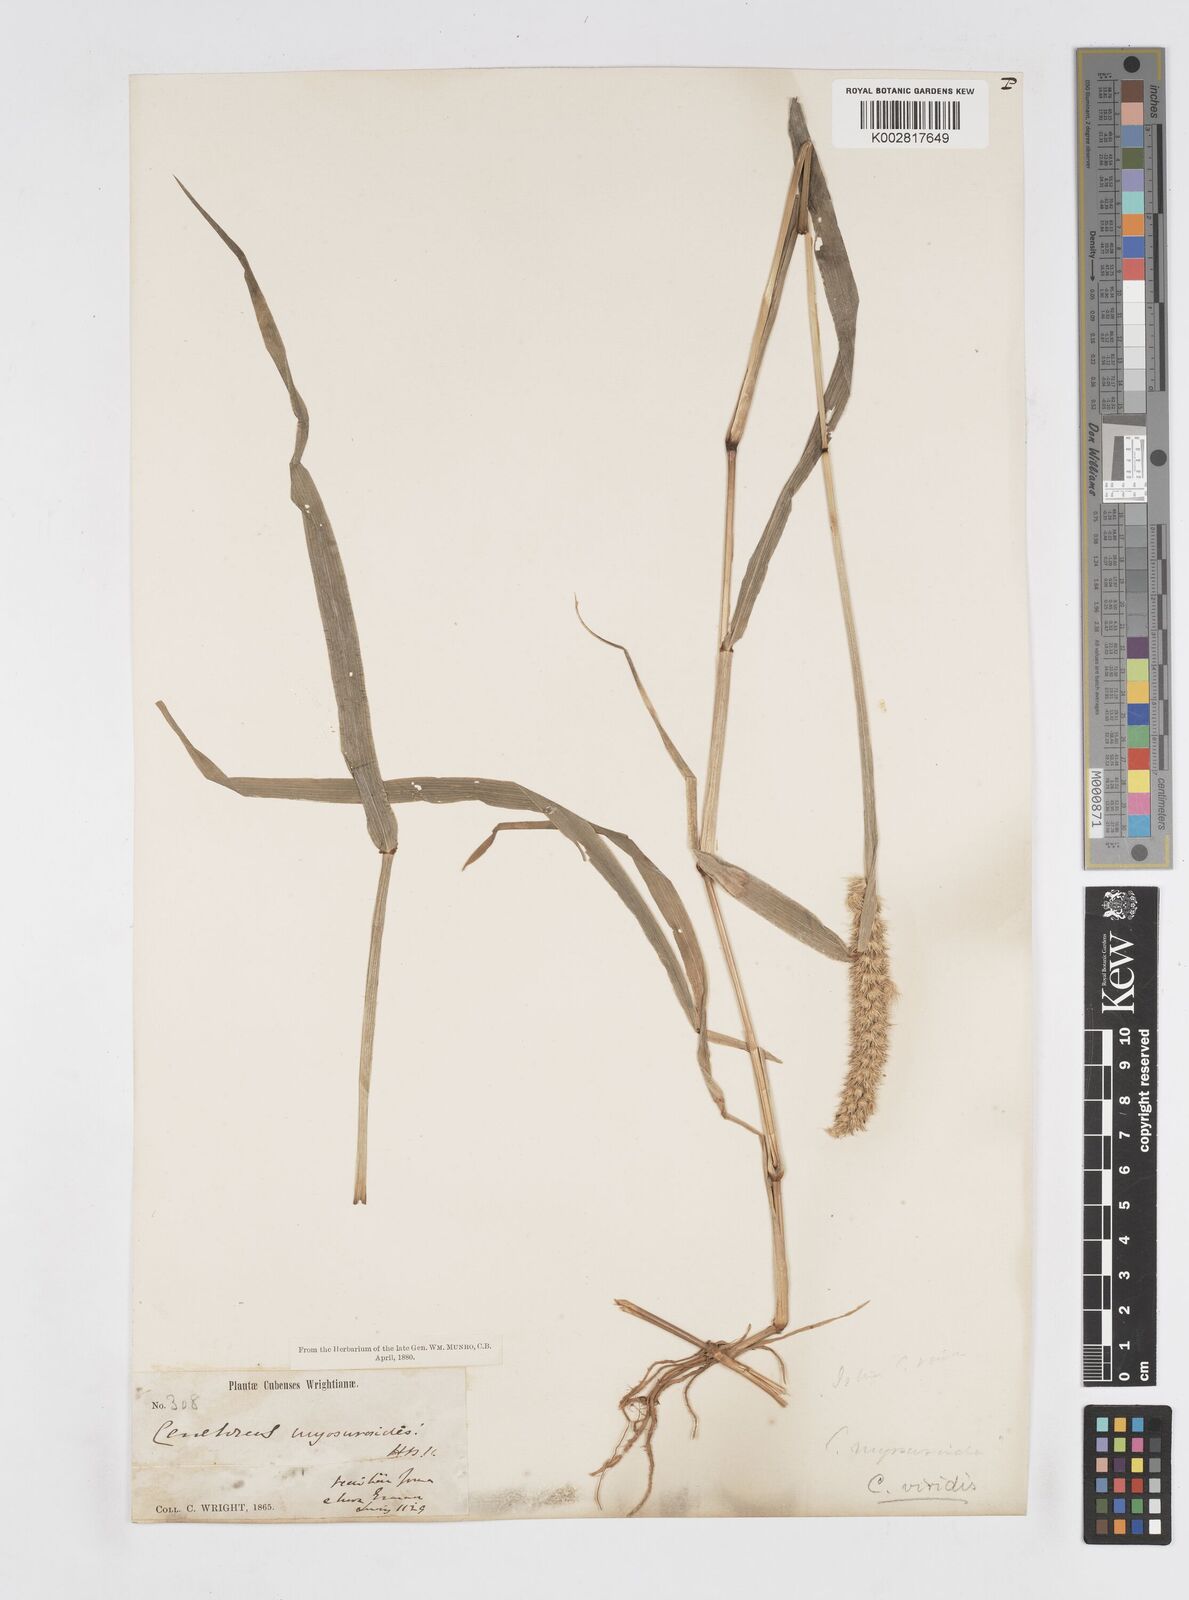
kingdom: Plantae
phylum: Tracheophyta
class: Liliopsida
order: Poales
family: Poaceae
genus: Cenchrus
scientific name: Cenchrus brownii
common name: Slim-bristle sandbur
